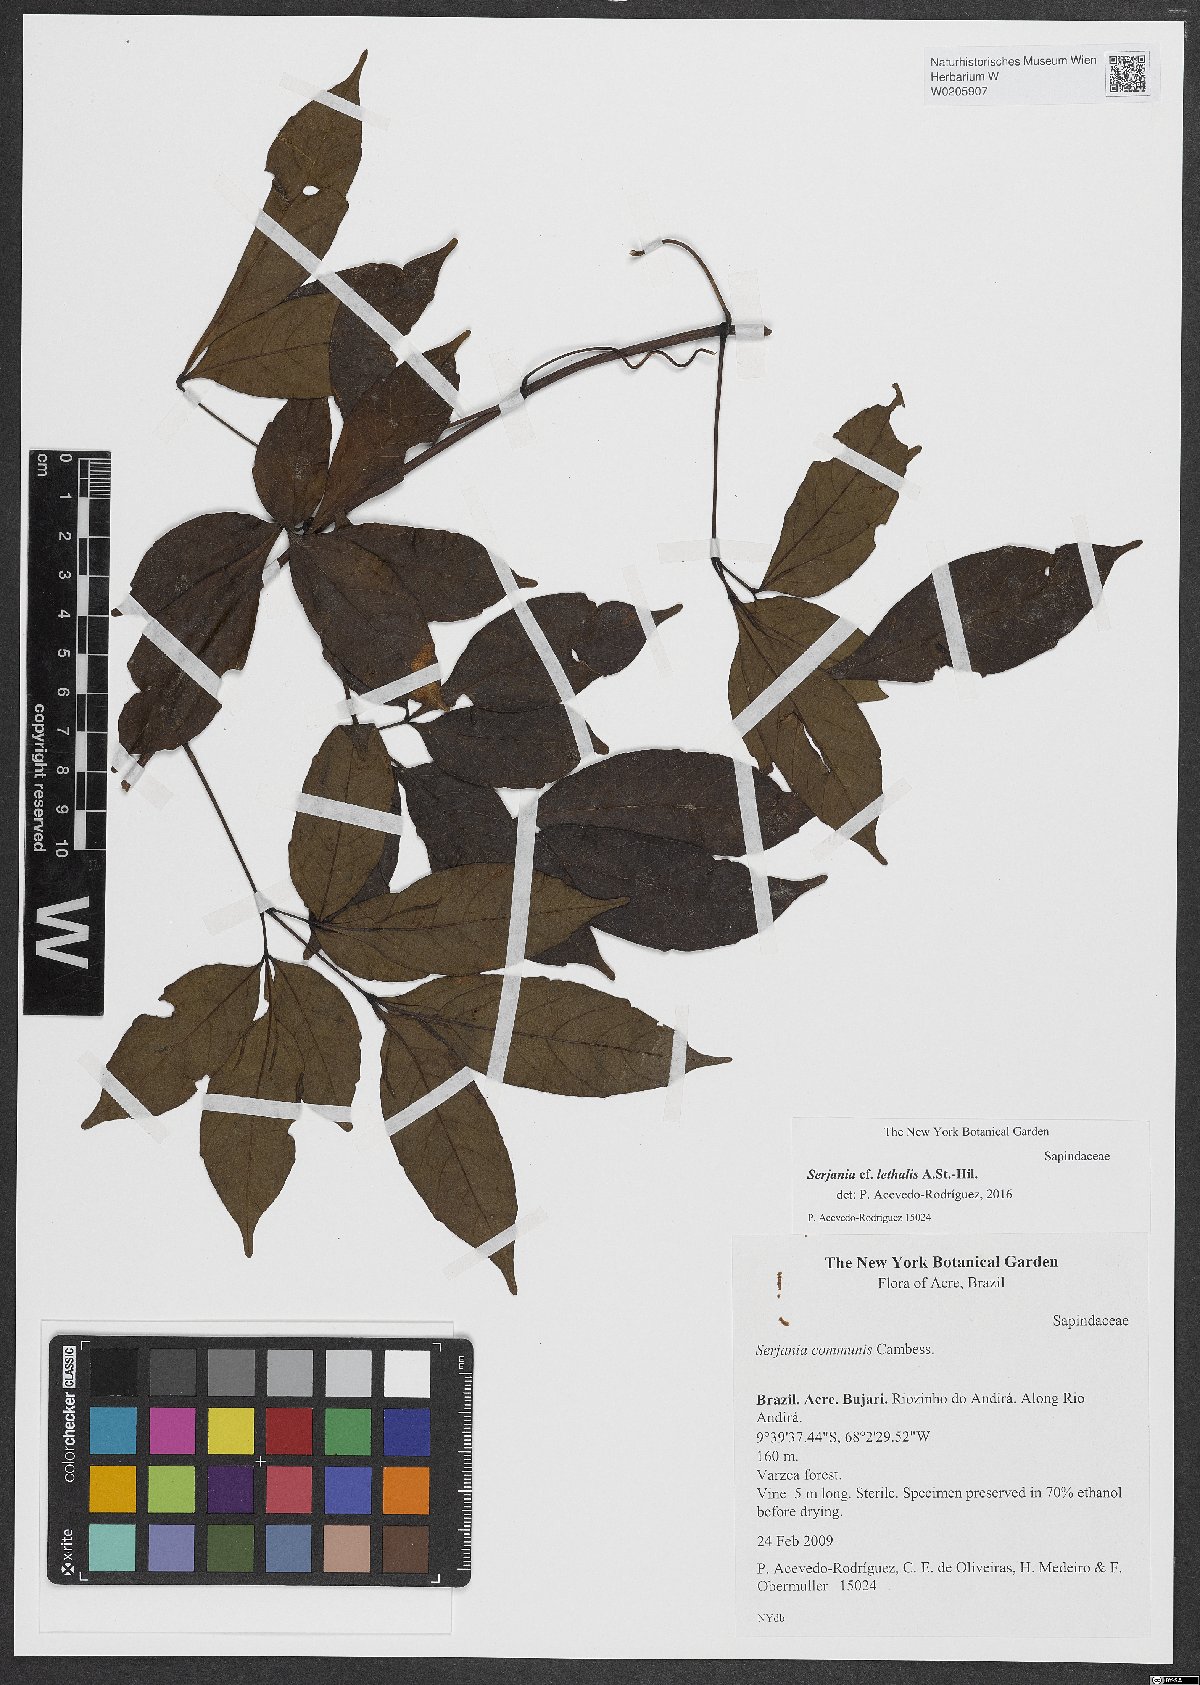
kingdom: Plantae
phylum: Tracheophyta
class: Magnoliopsida
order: Sapindales
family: Sapindaceae
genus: Serjania
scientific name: Serjania lethalis
